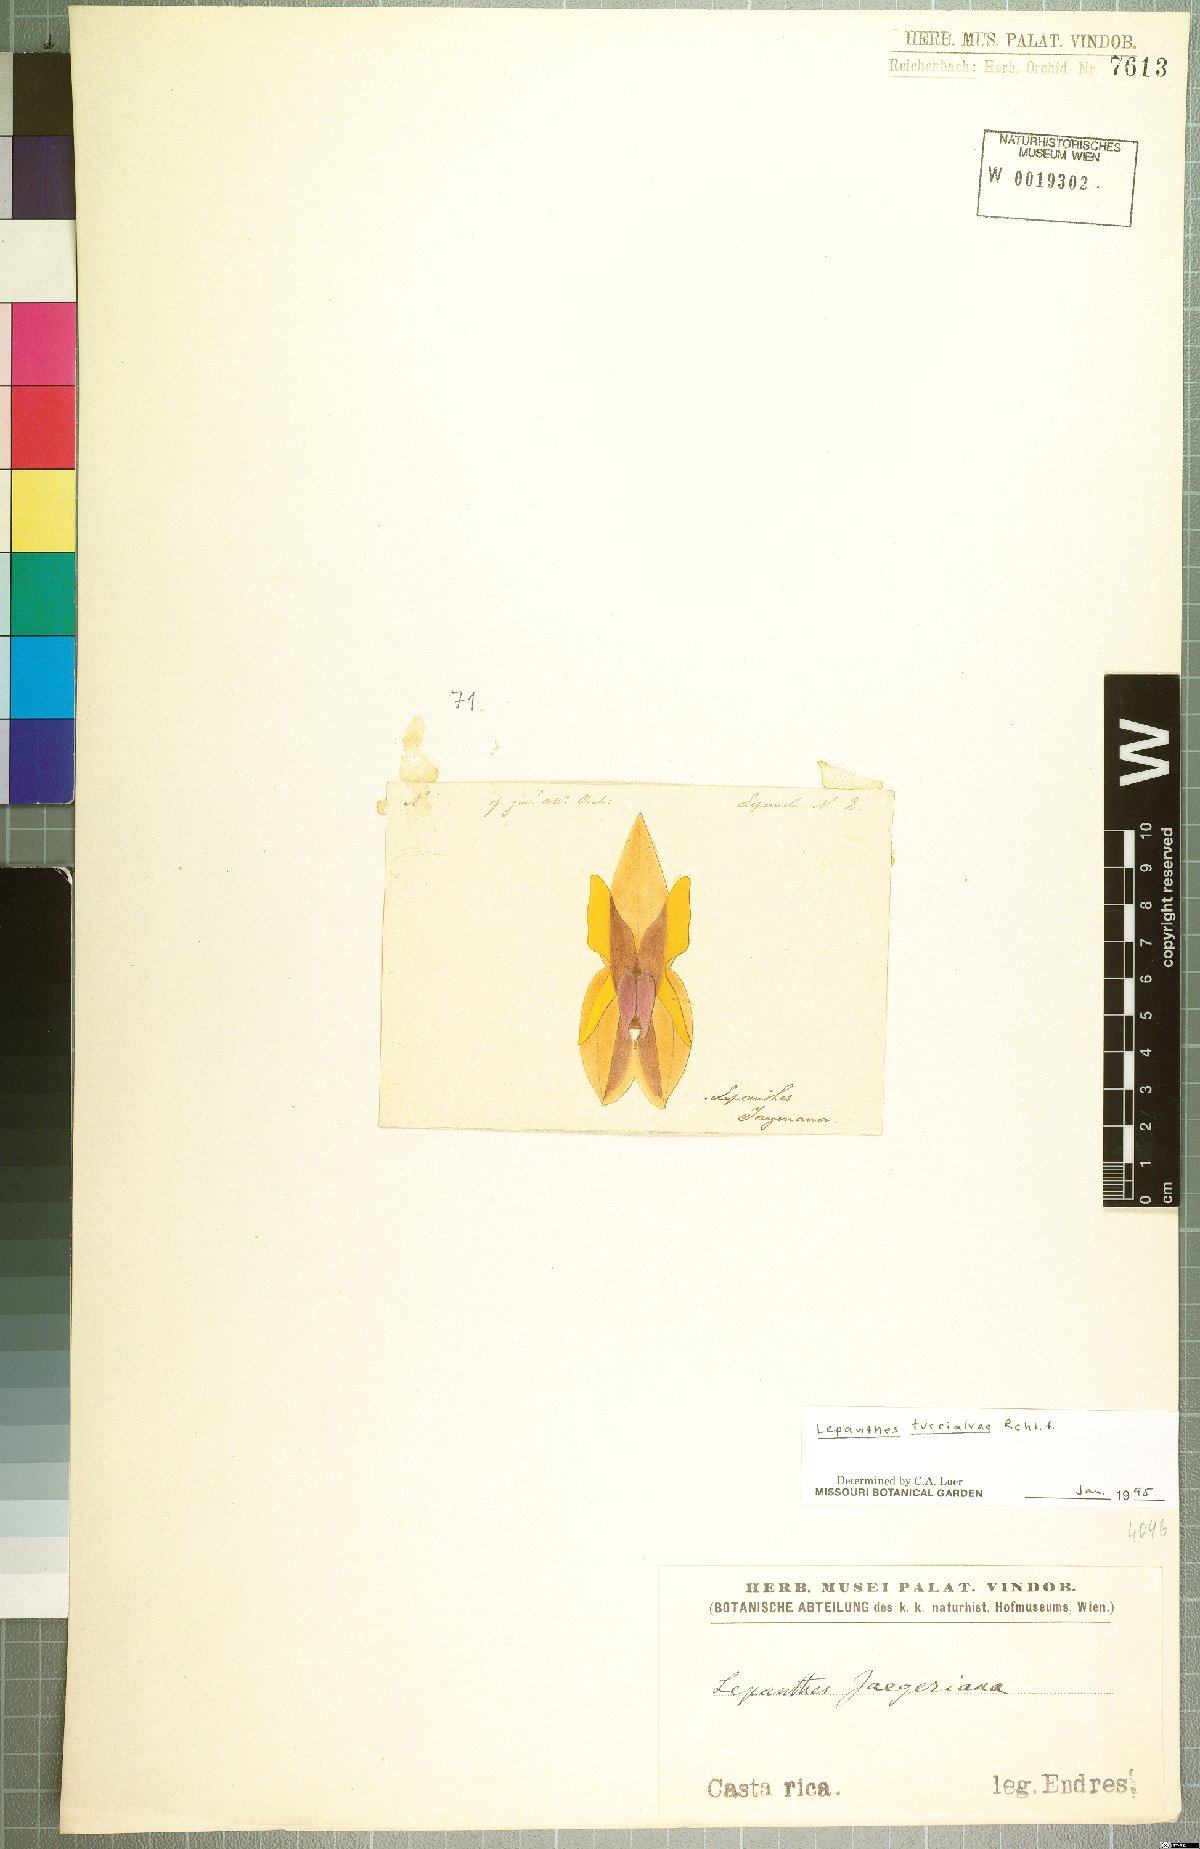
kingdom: Plantae
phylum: Tracheophyta
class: Liliopsida
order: Asparagales
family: Orchidaceae
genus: Lepanthes
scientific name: Lepanthes turialvae
